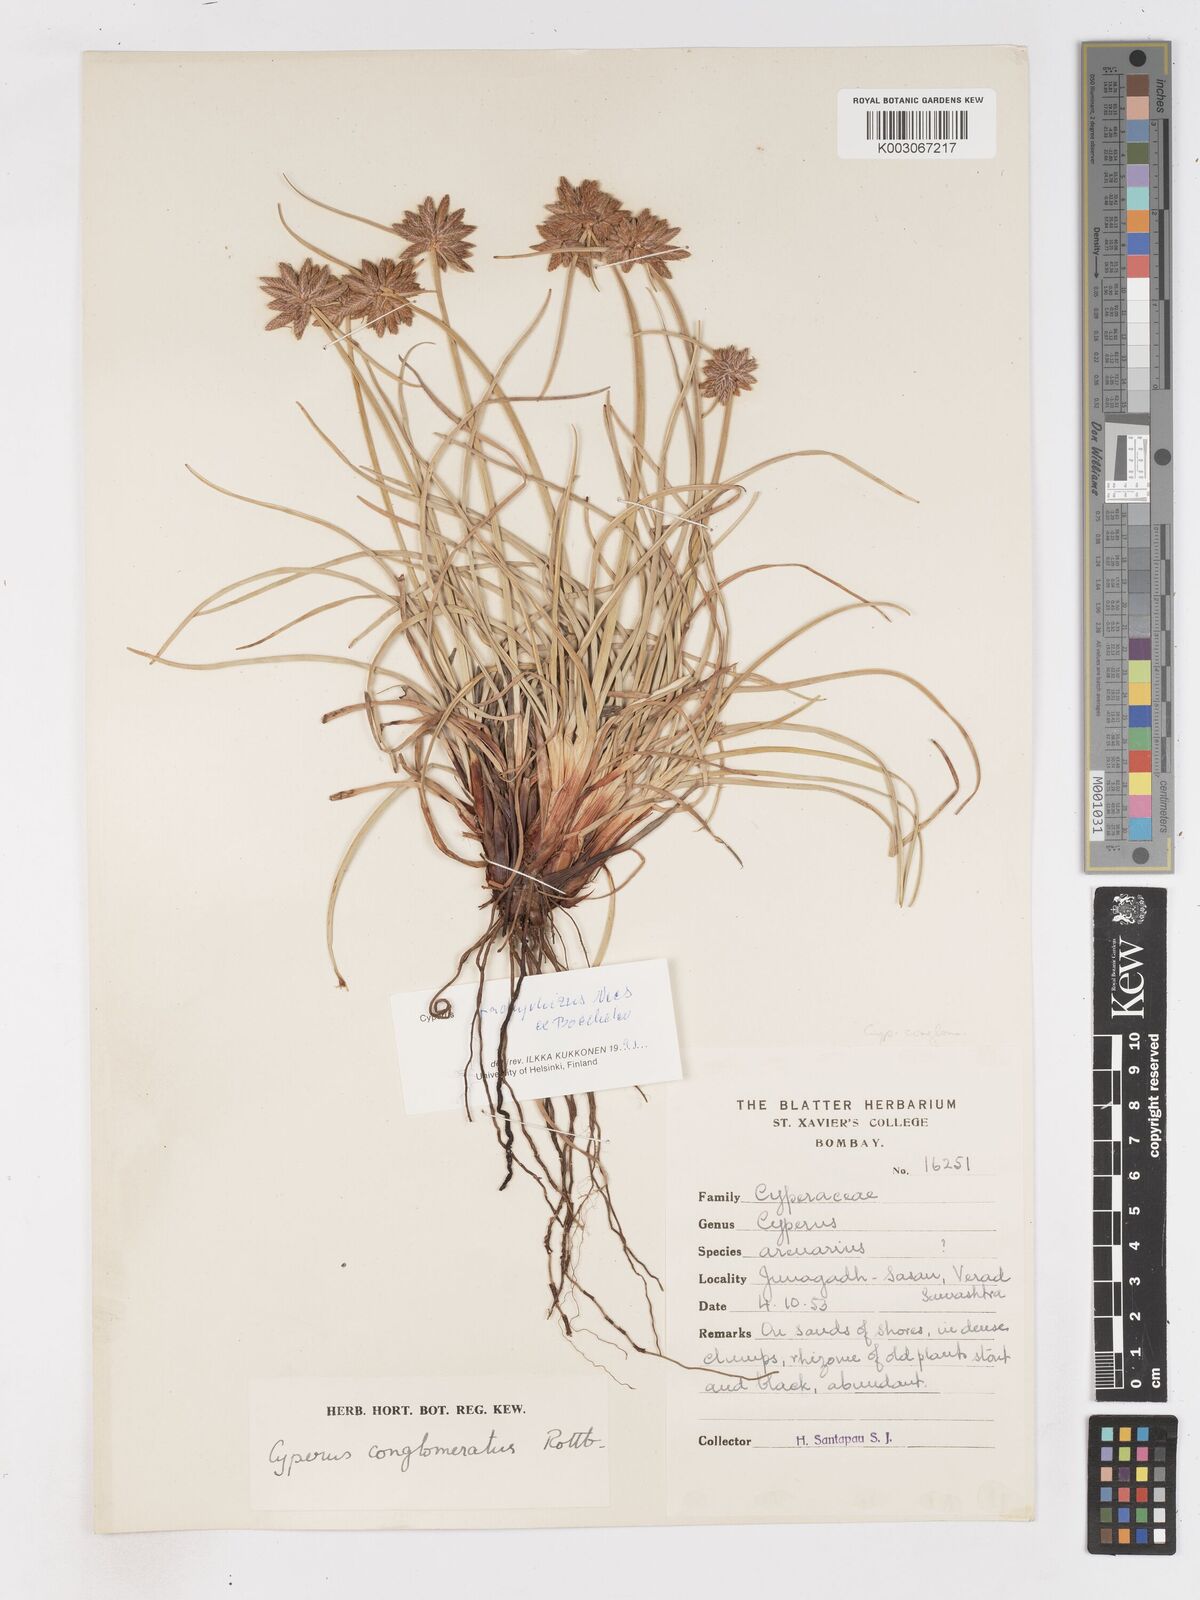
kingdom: Plantae
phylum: Tracheophyta
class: Liliopsida
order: Poales
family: Cyperaceae
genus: Cyperus
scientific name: Cyperus conglomeratus
